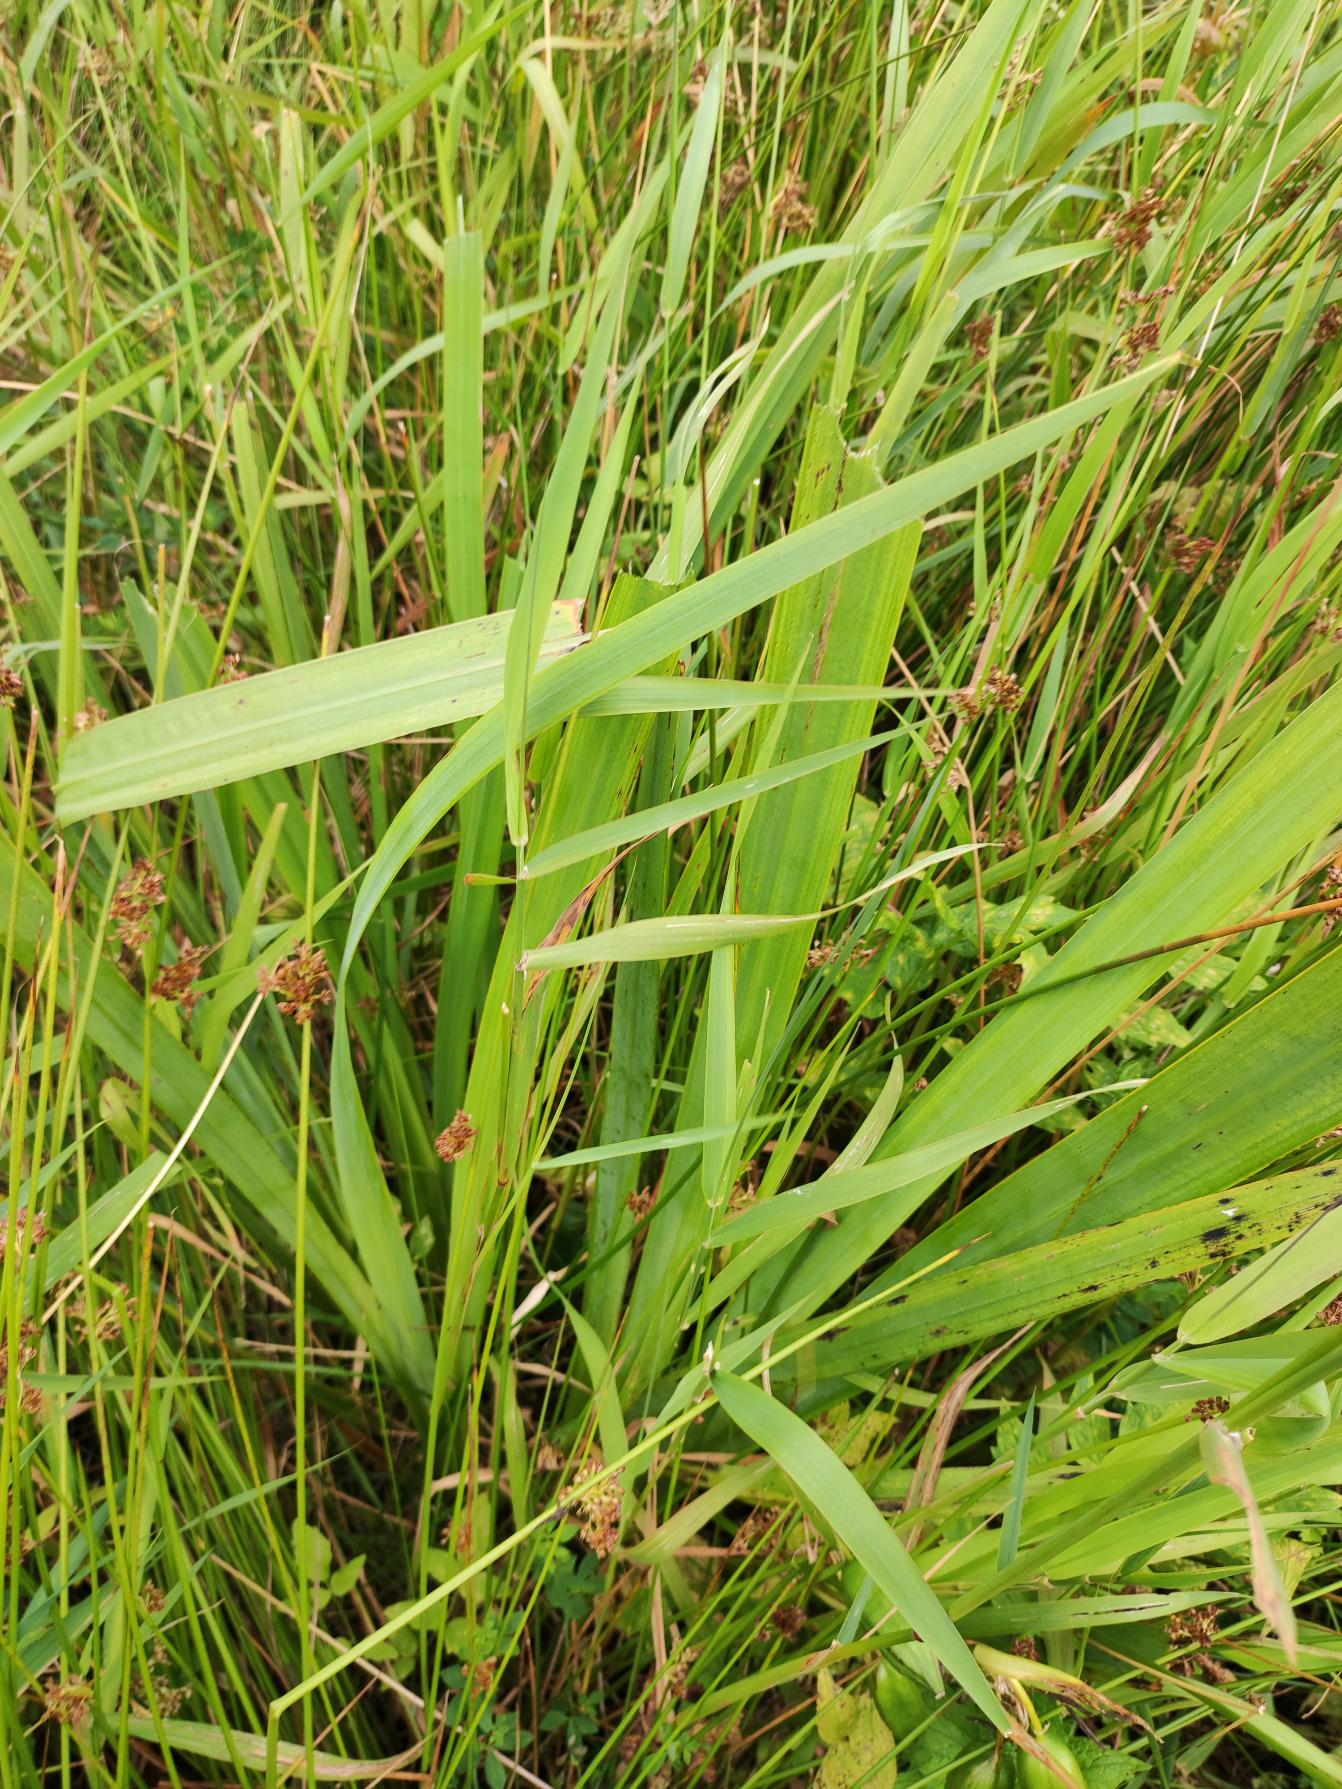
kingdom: Plantae
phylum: Tracheophyta
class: Liliopsida
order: Asparagales
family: Iridaceae
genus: Iris
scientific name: Iris pseudacorus
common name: Gul iris
